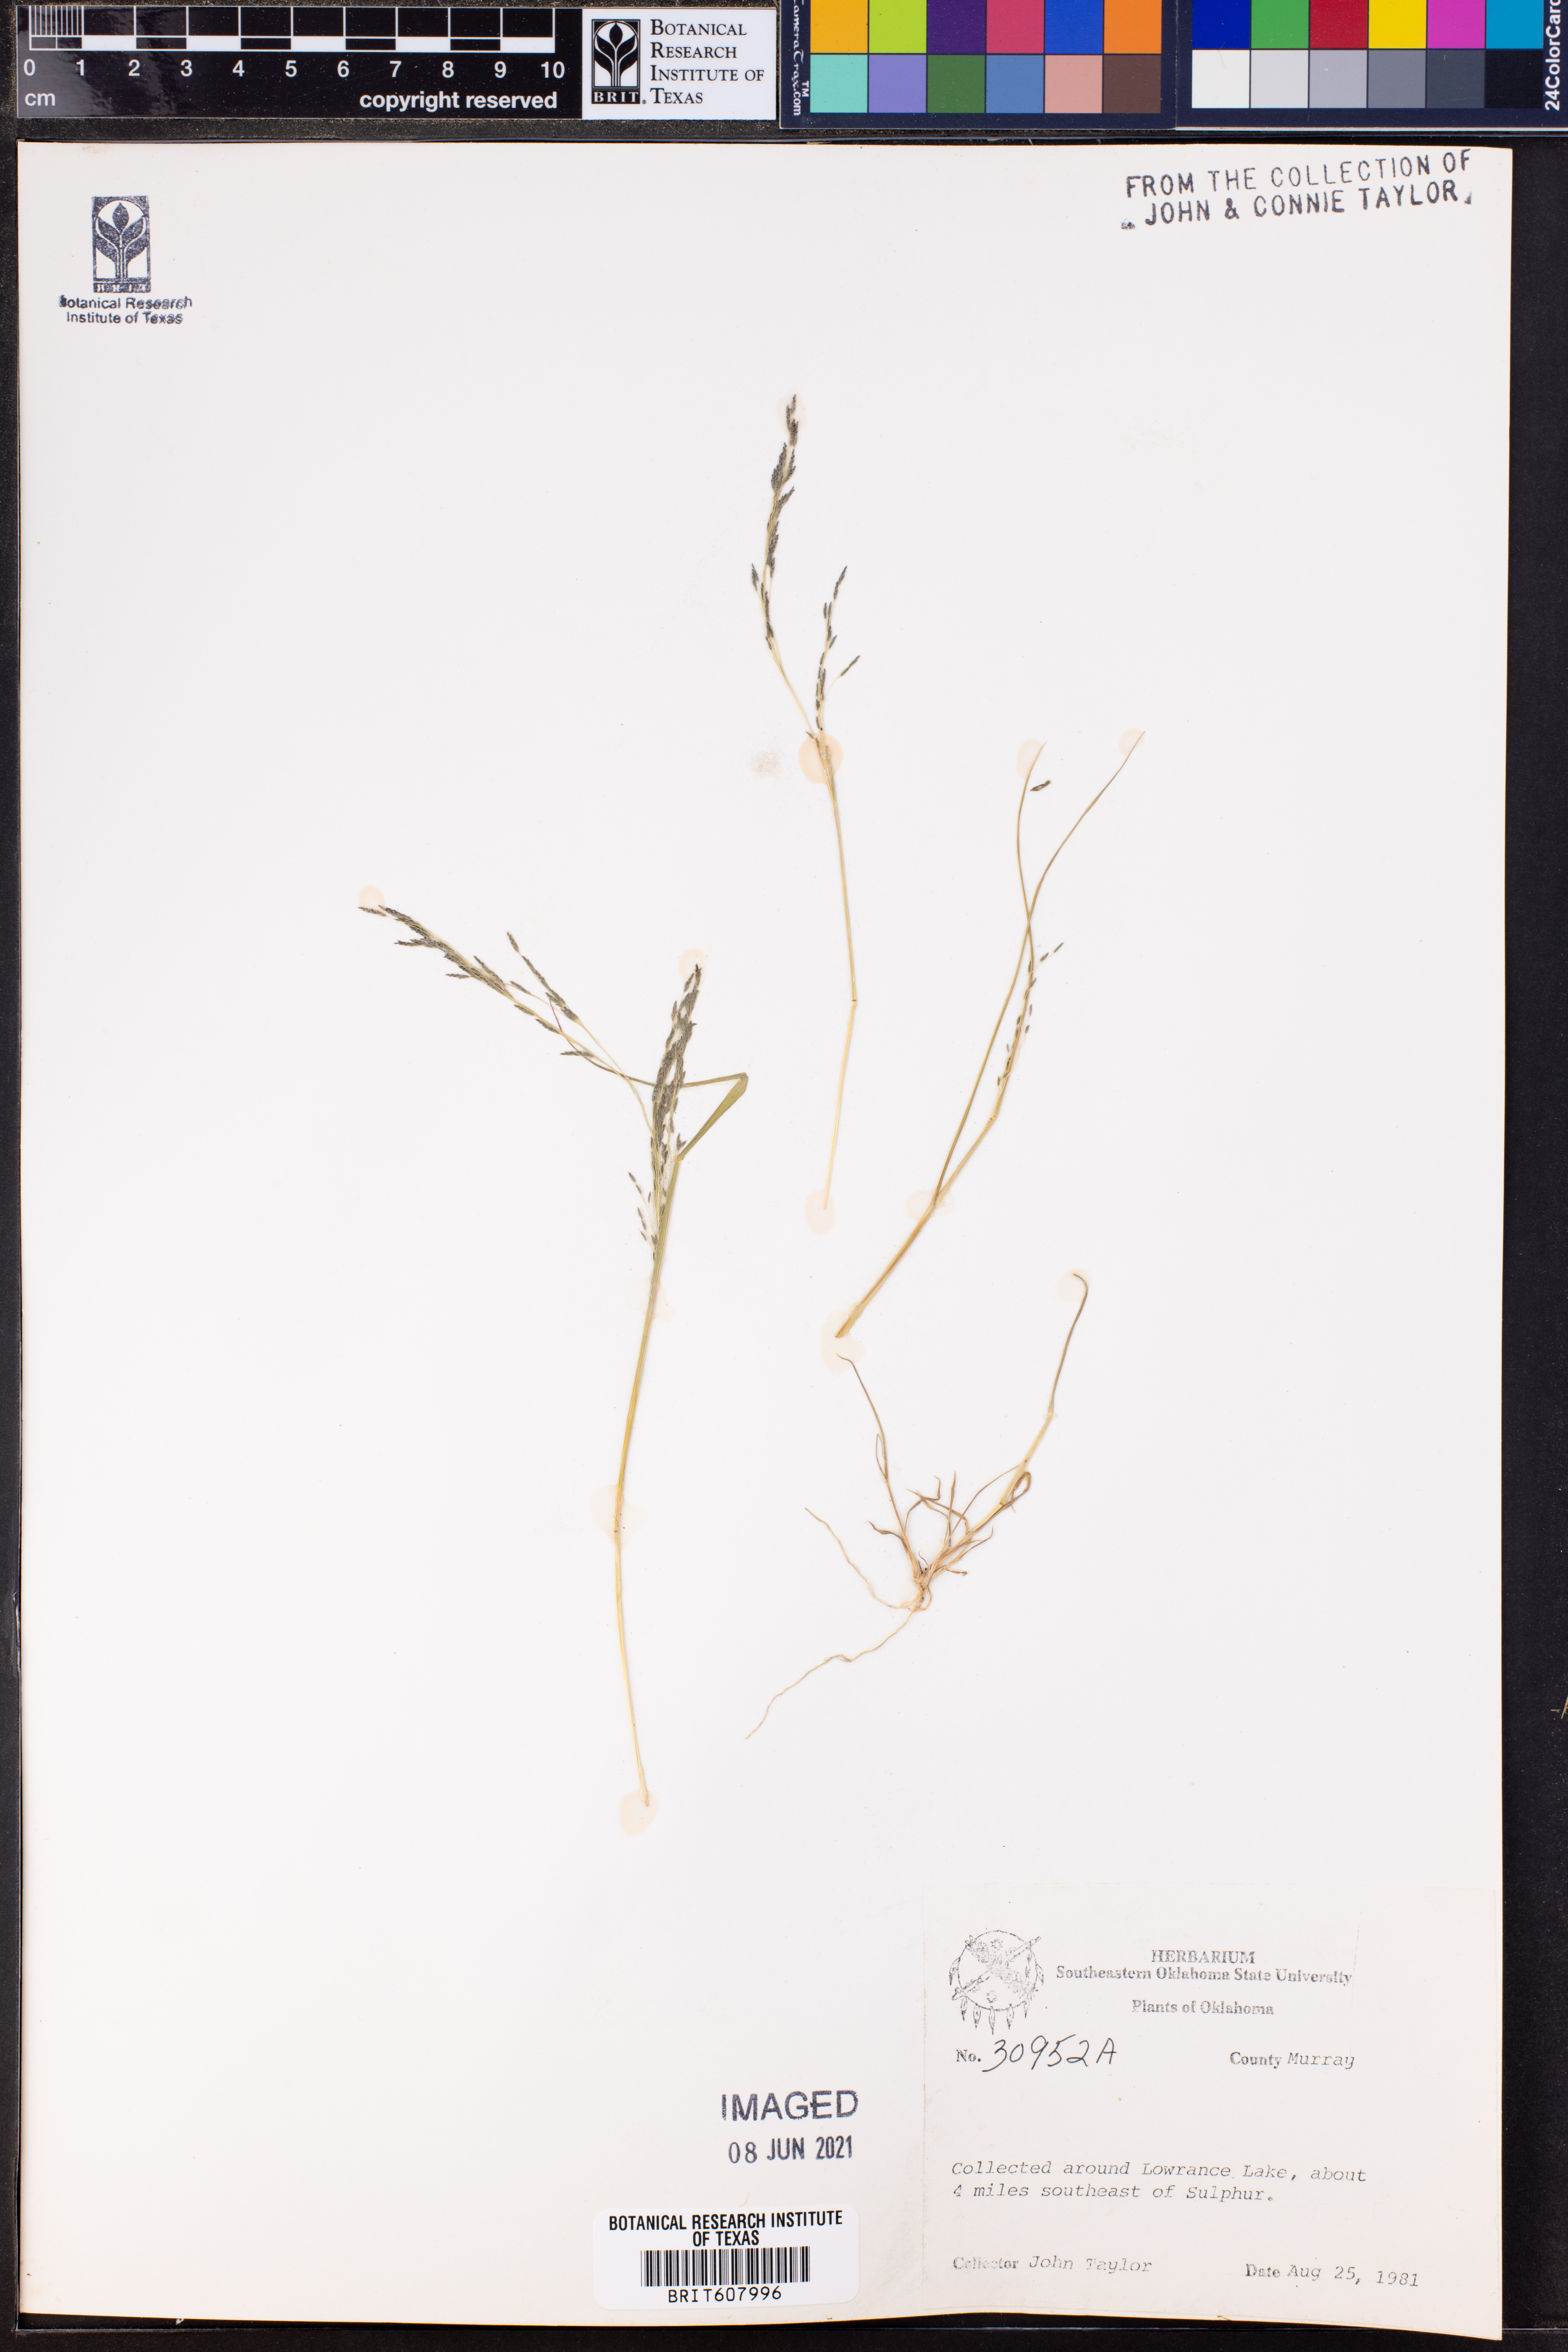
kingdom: Plantae
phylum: Tracheophyta
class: Liliopsida
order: Poales
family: Poaceae
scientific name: Poaceae
